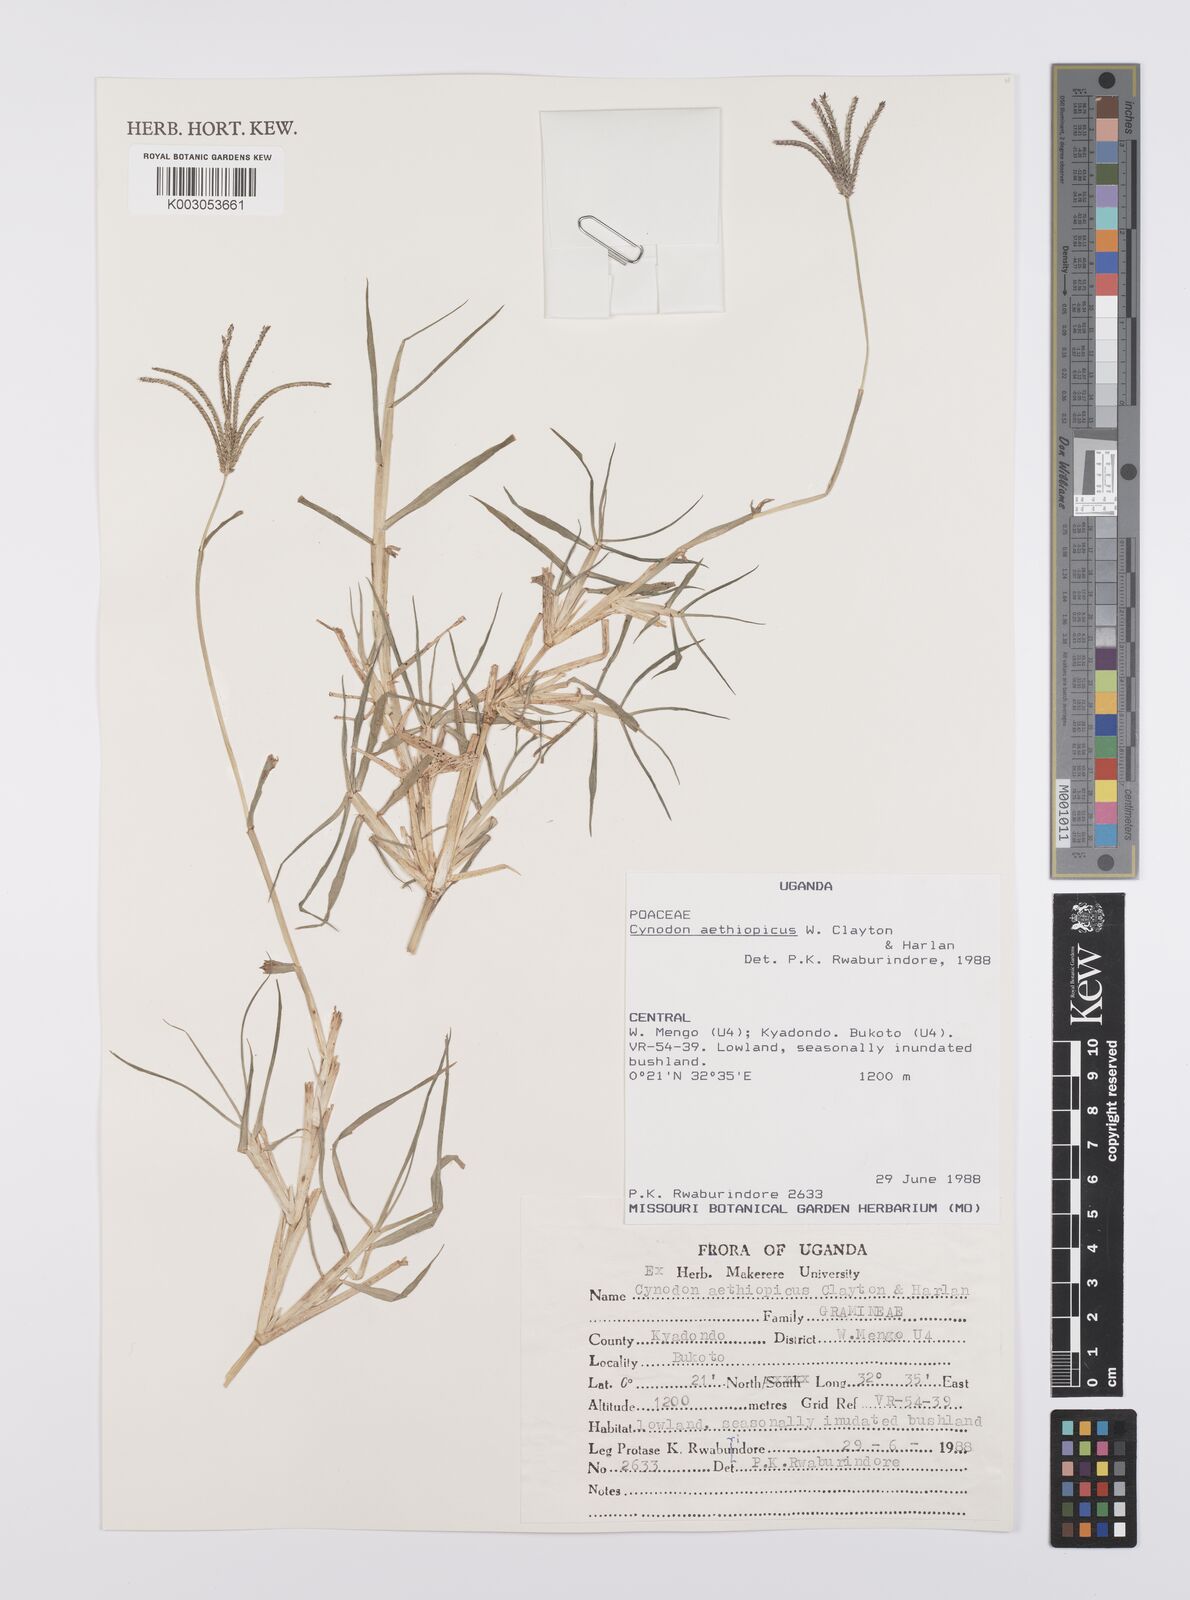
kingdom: Plantae
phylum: Tracheophyta
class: Liliopsida
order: Poales
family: Poaceae
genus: Cynodon
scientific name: Cynodon aethiopicus
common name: Ethiopian dogstooth grass
